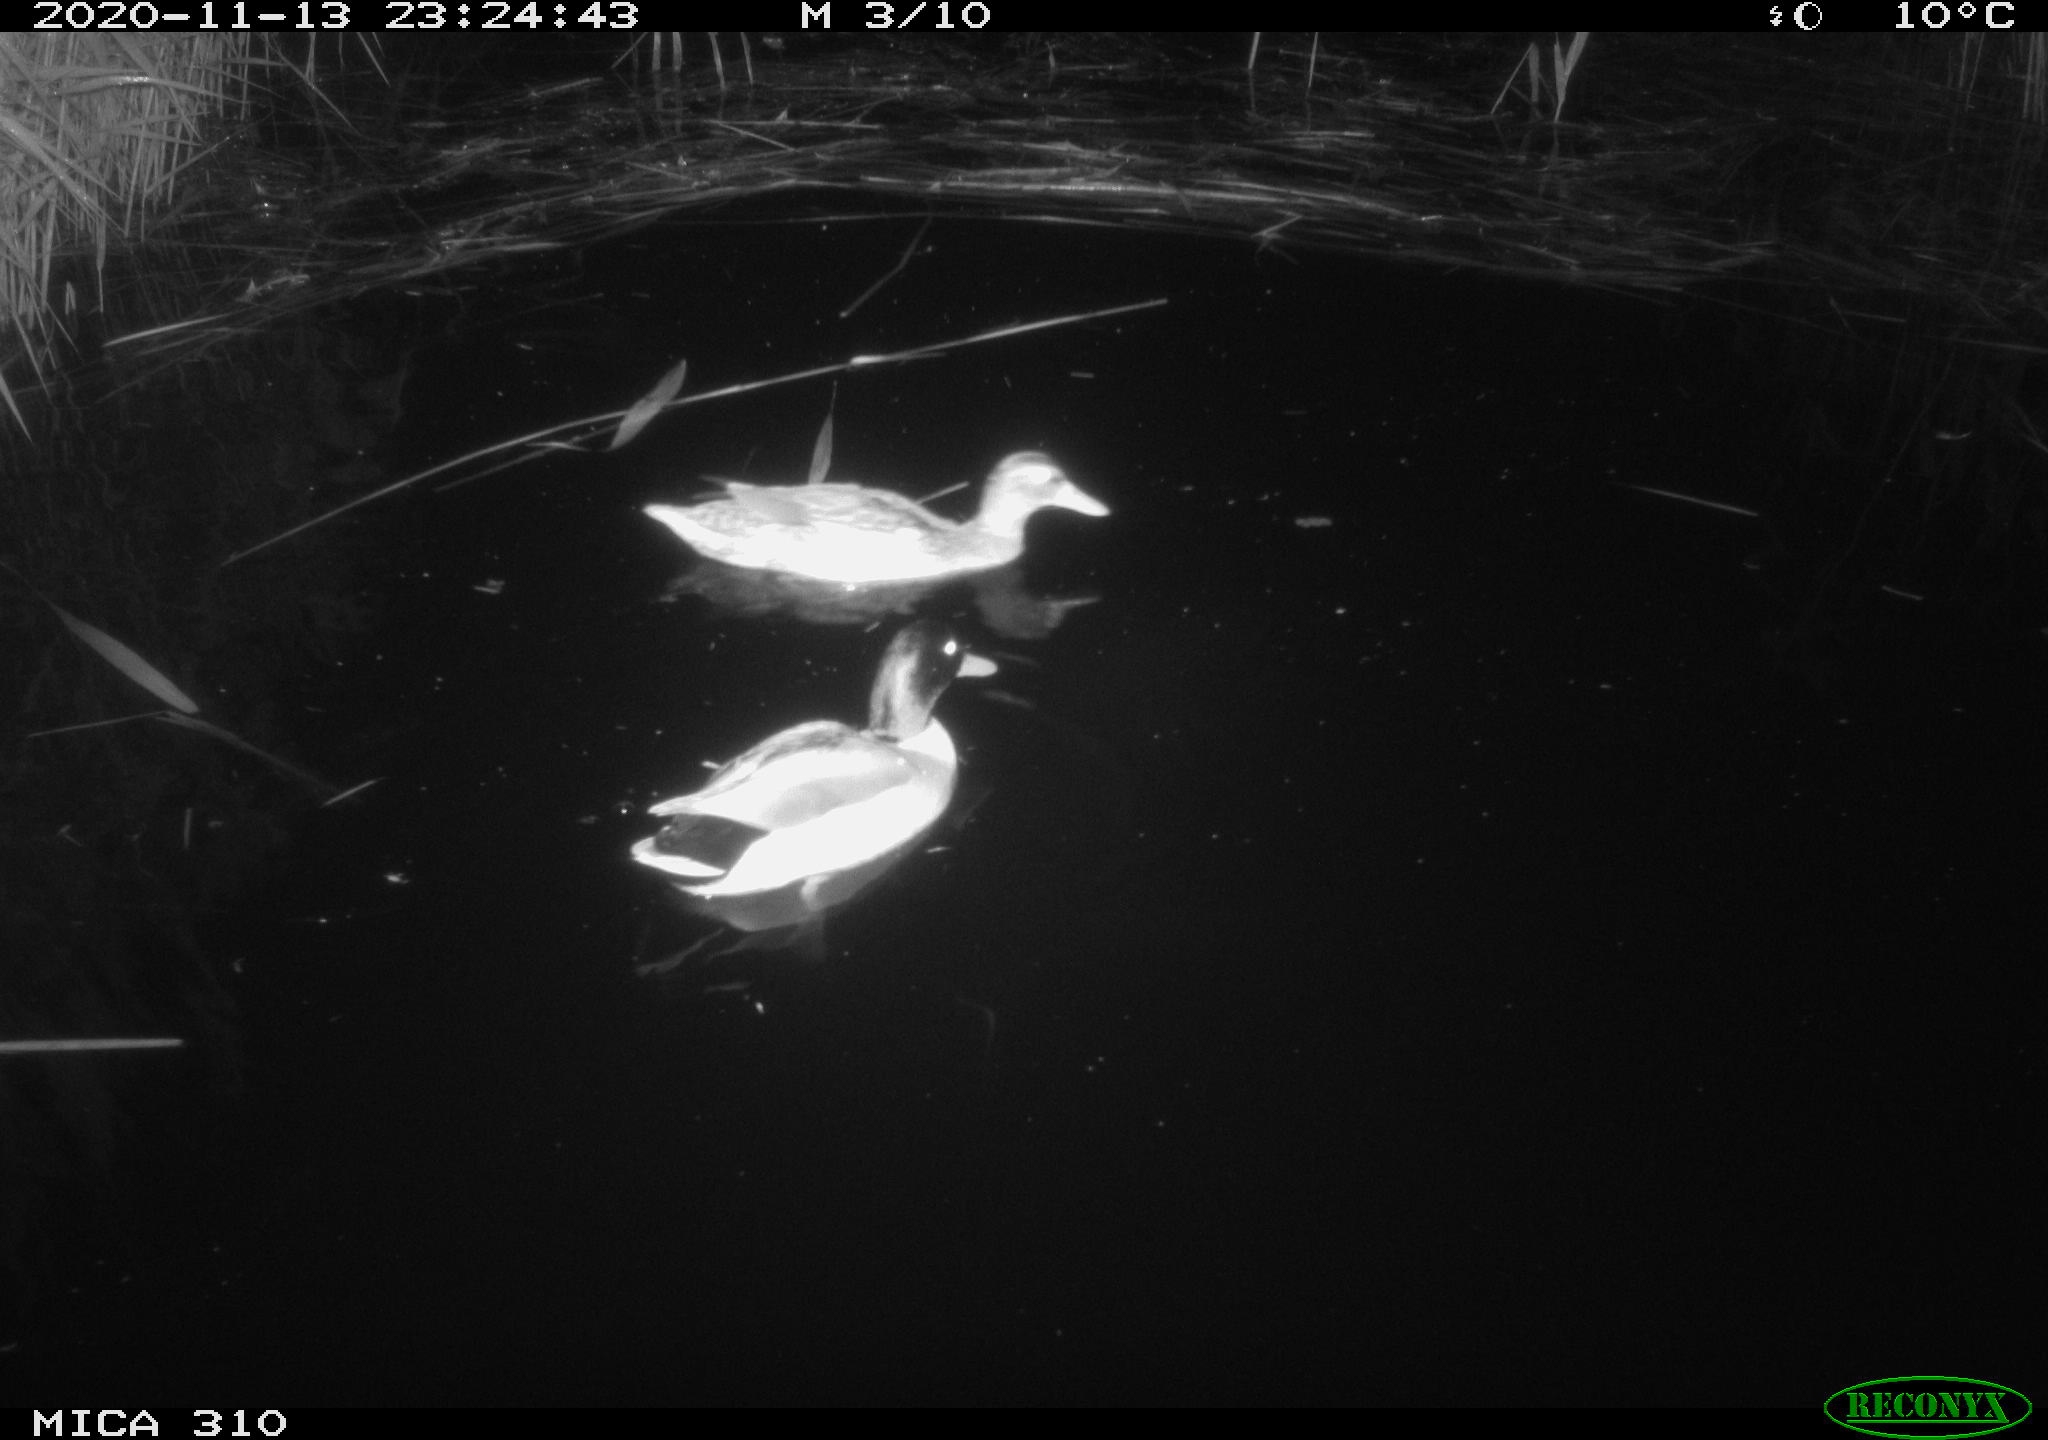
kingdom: Animalia
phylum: Chordata
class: Aves
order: Gruiformes
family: Rallidae
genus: Gallinula
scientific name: Gallinula chloropus
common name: Common moorhen
